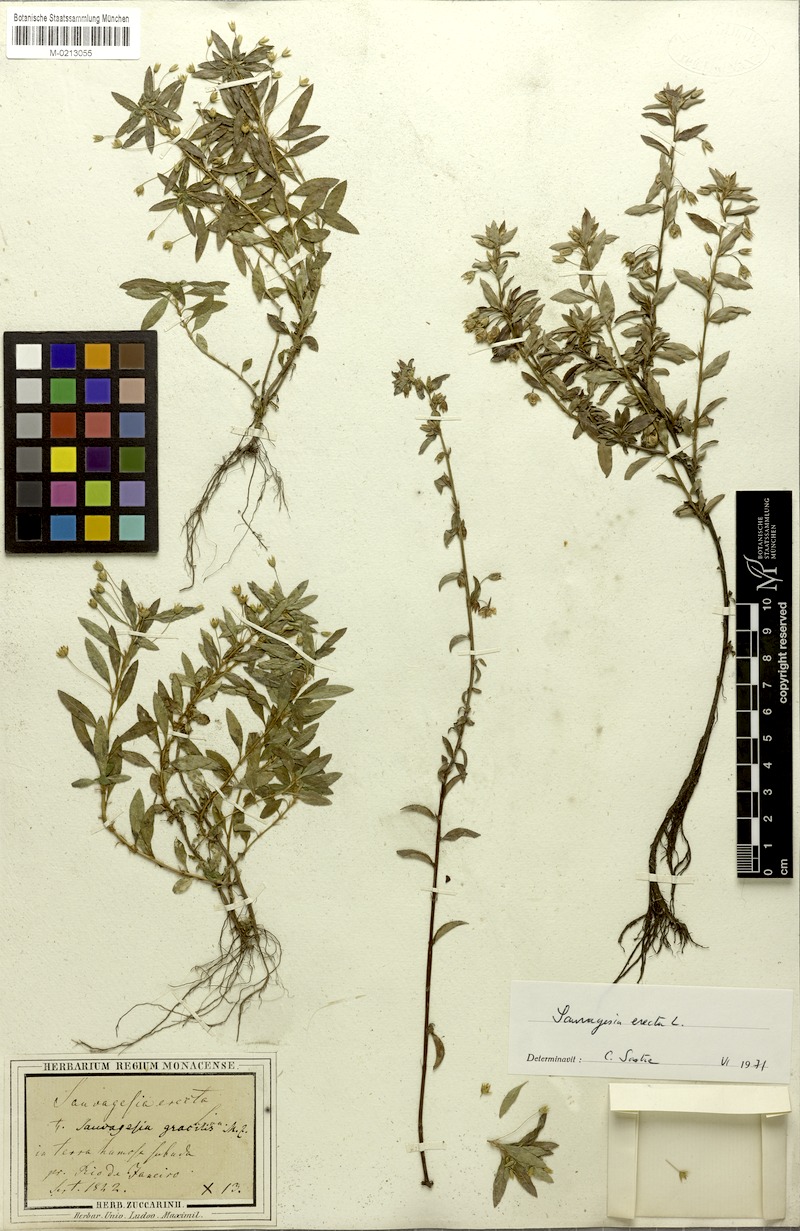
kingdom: Plantae
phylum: Tracheophyta
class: Magnoliopsida
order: Malpighiales
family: Ochnaceae
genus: Sauvagesia
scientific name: Sauvagesia erecta
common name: Creole tea
